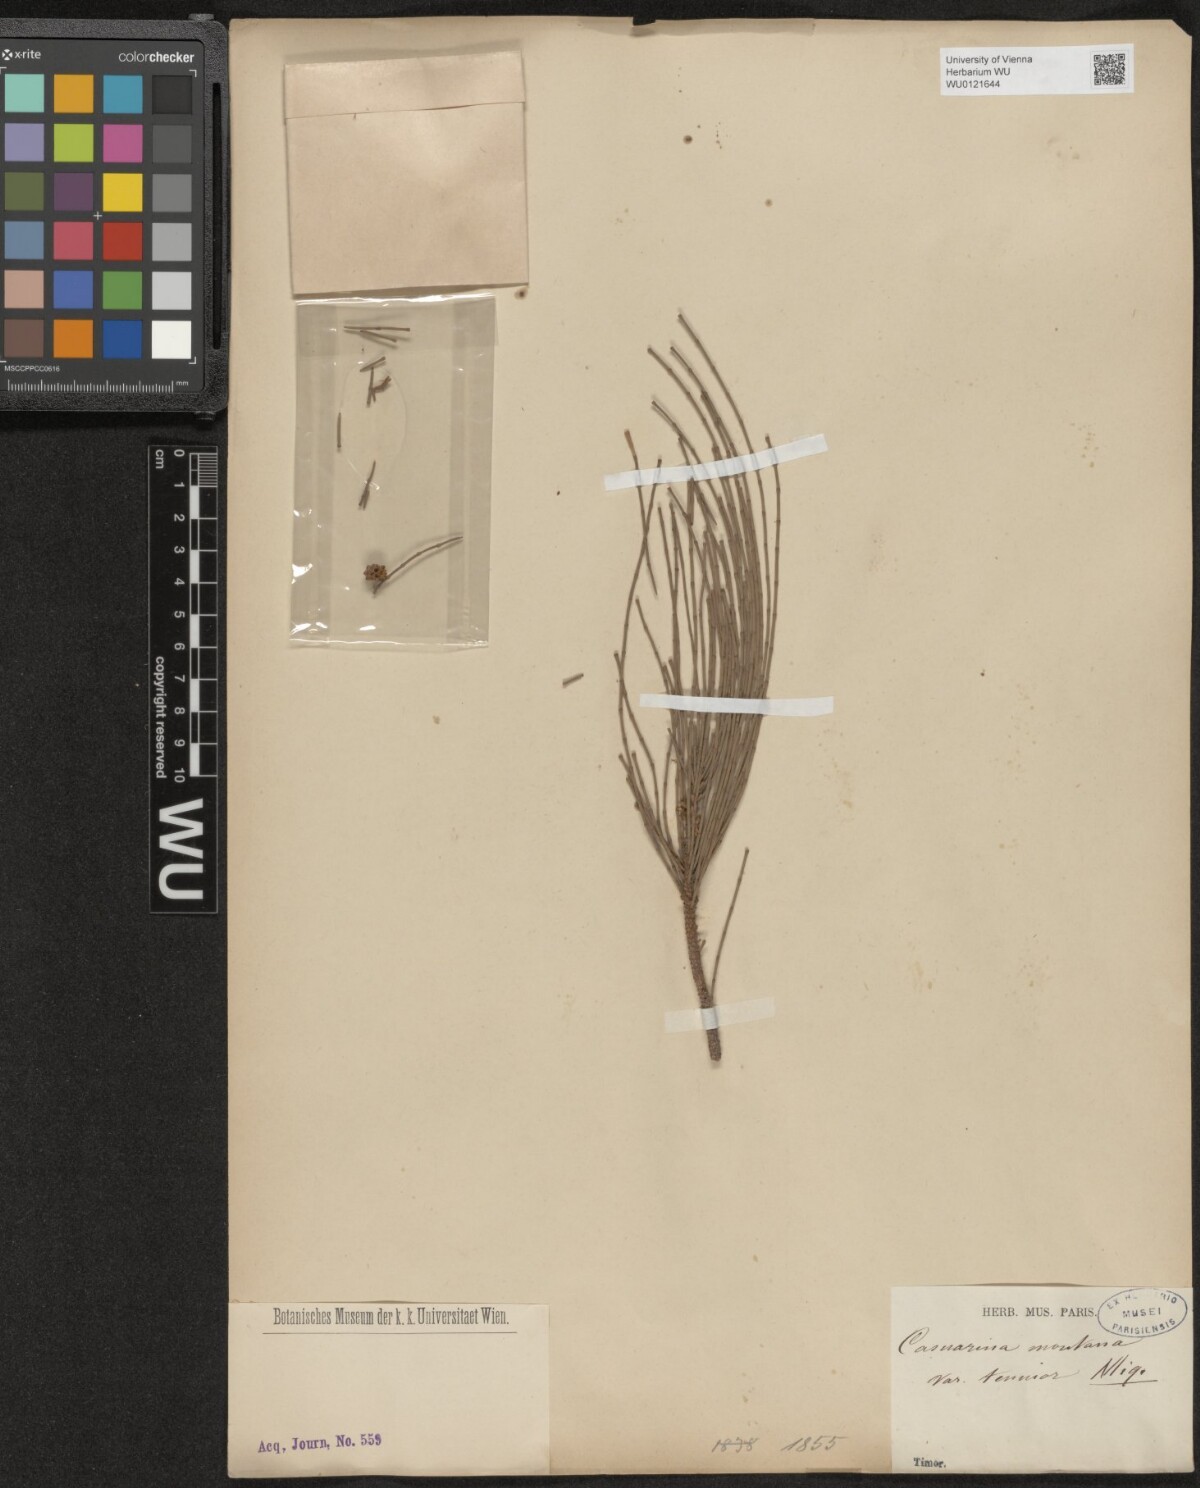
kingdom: Plantae
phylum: Tracheophyta
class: Magnoliopsida
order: Fagales
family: Casuarinaceae
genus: Casuarina
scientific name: Casuarina junghuhniana
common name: Mountain ru
